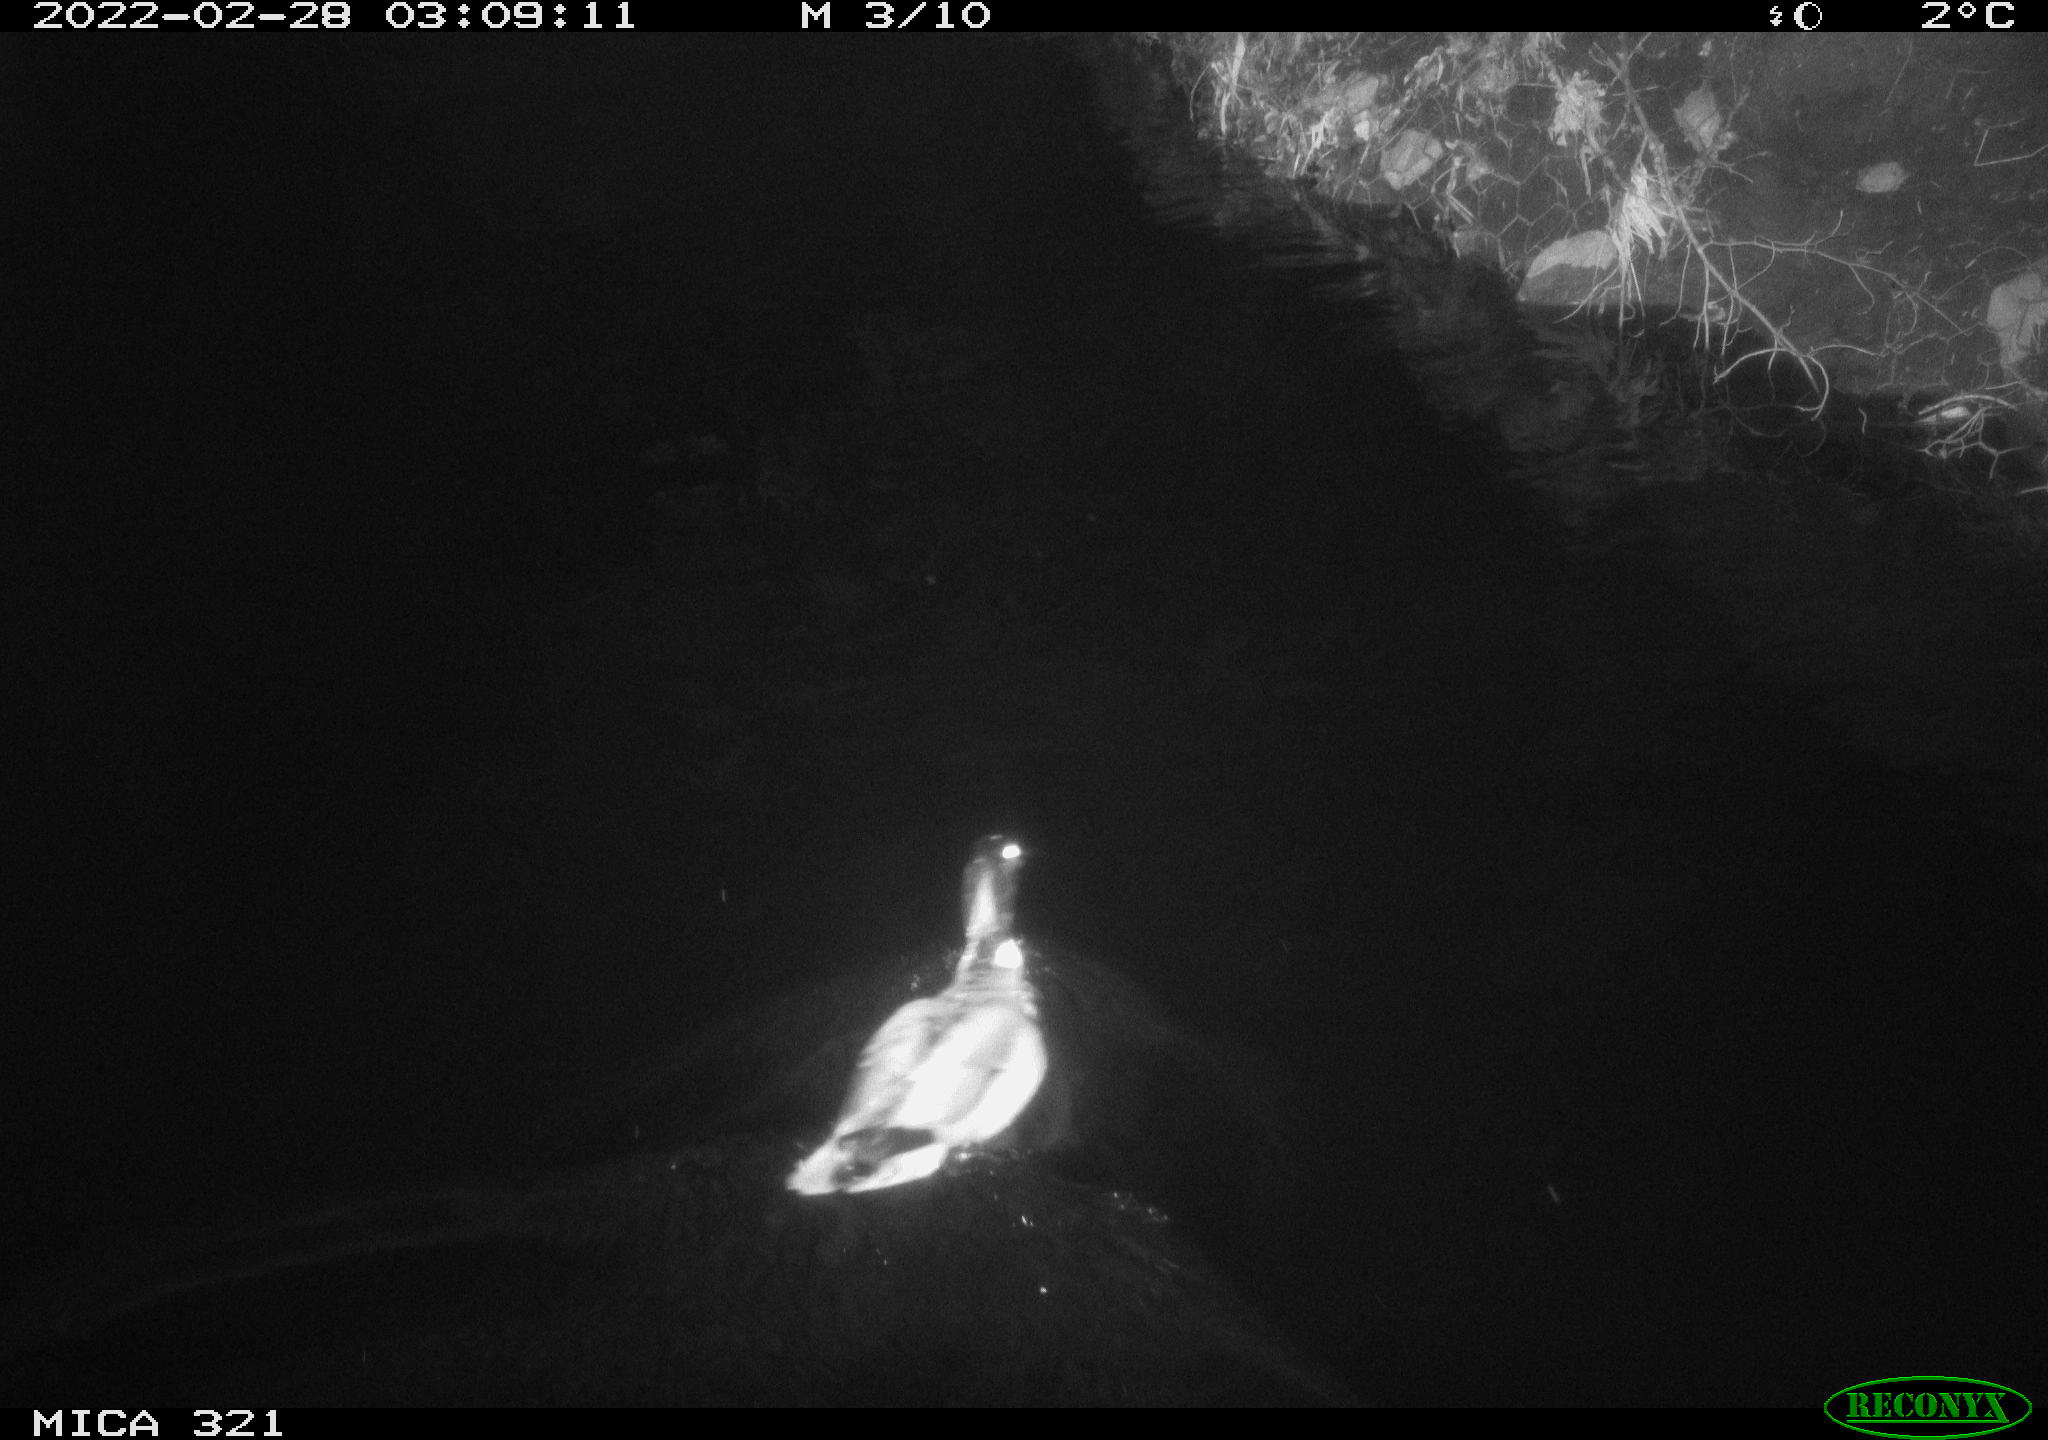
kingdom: Animalia
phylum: Chordata
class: Aves
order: Anseriformes
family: Anatidae
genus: Anas
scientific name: Anas platyrhynchos
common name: Mallard
